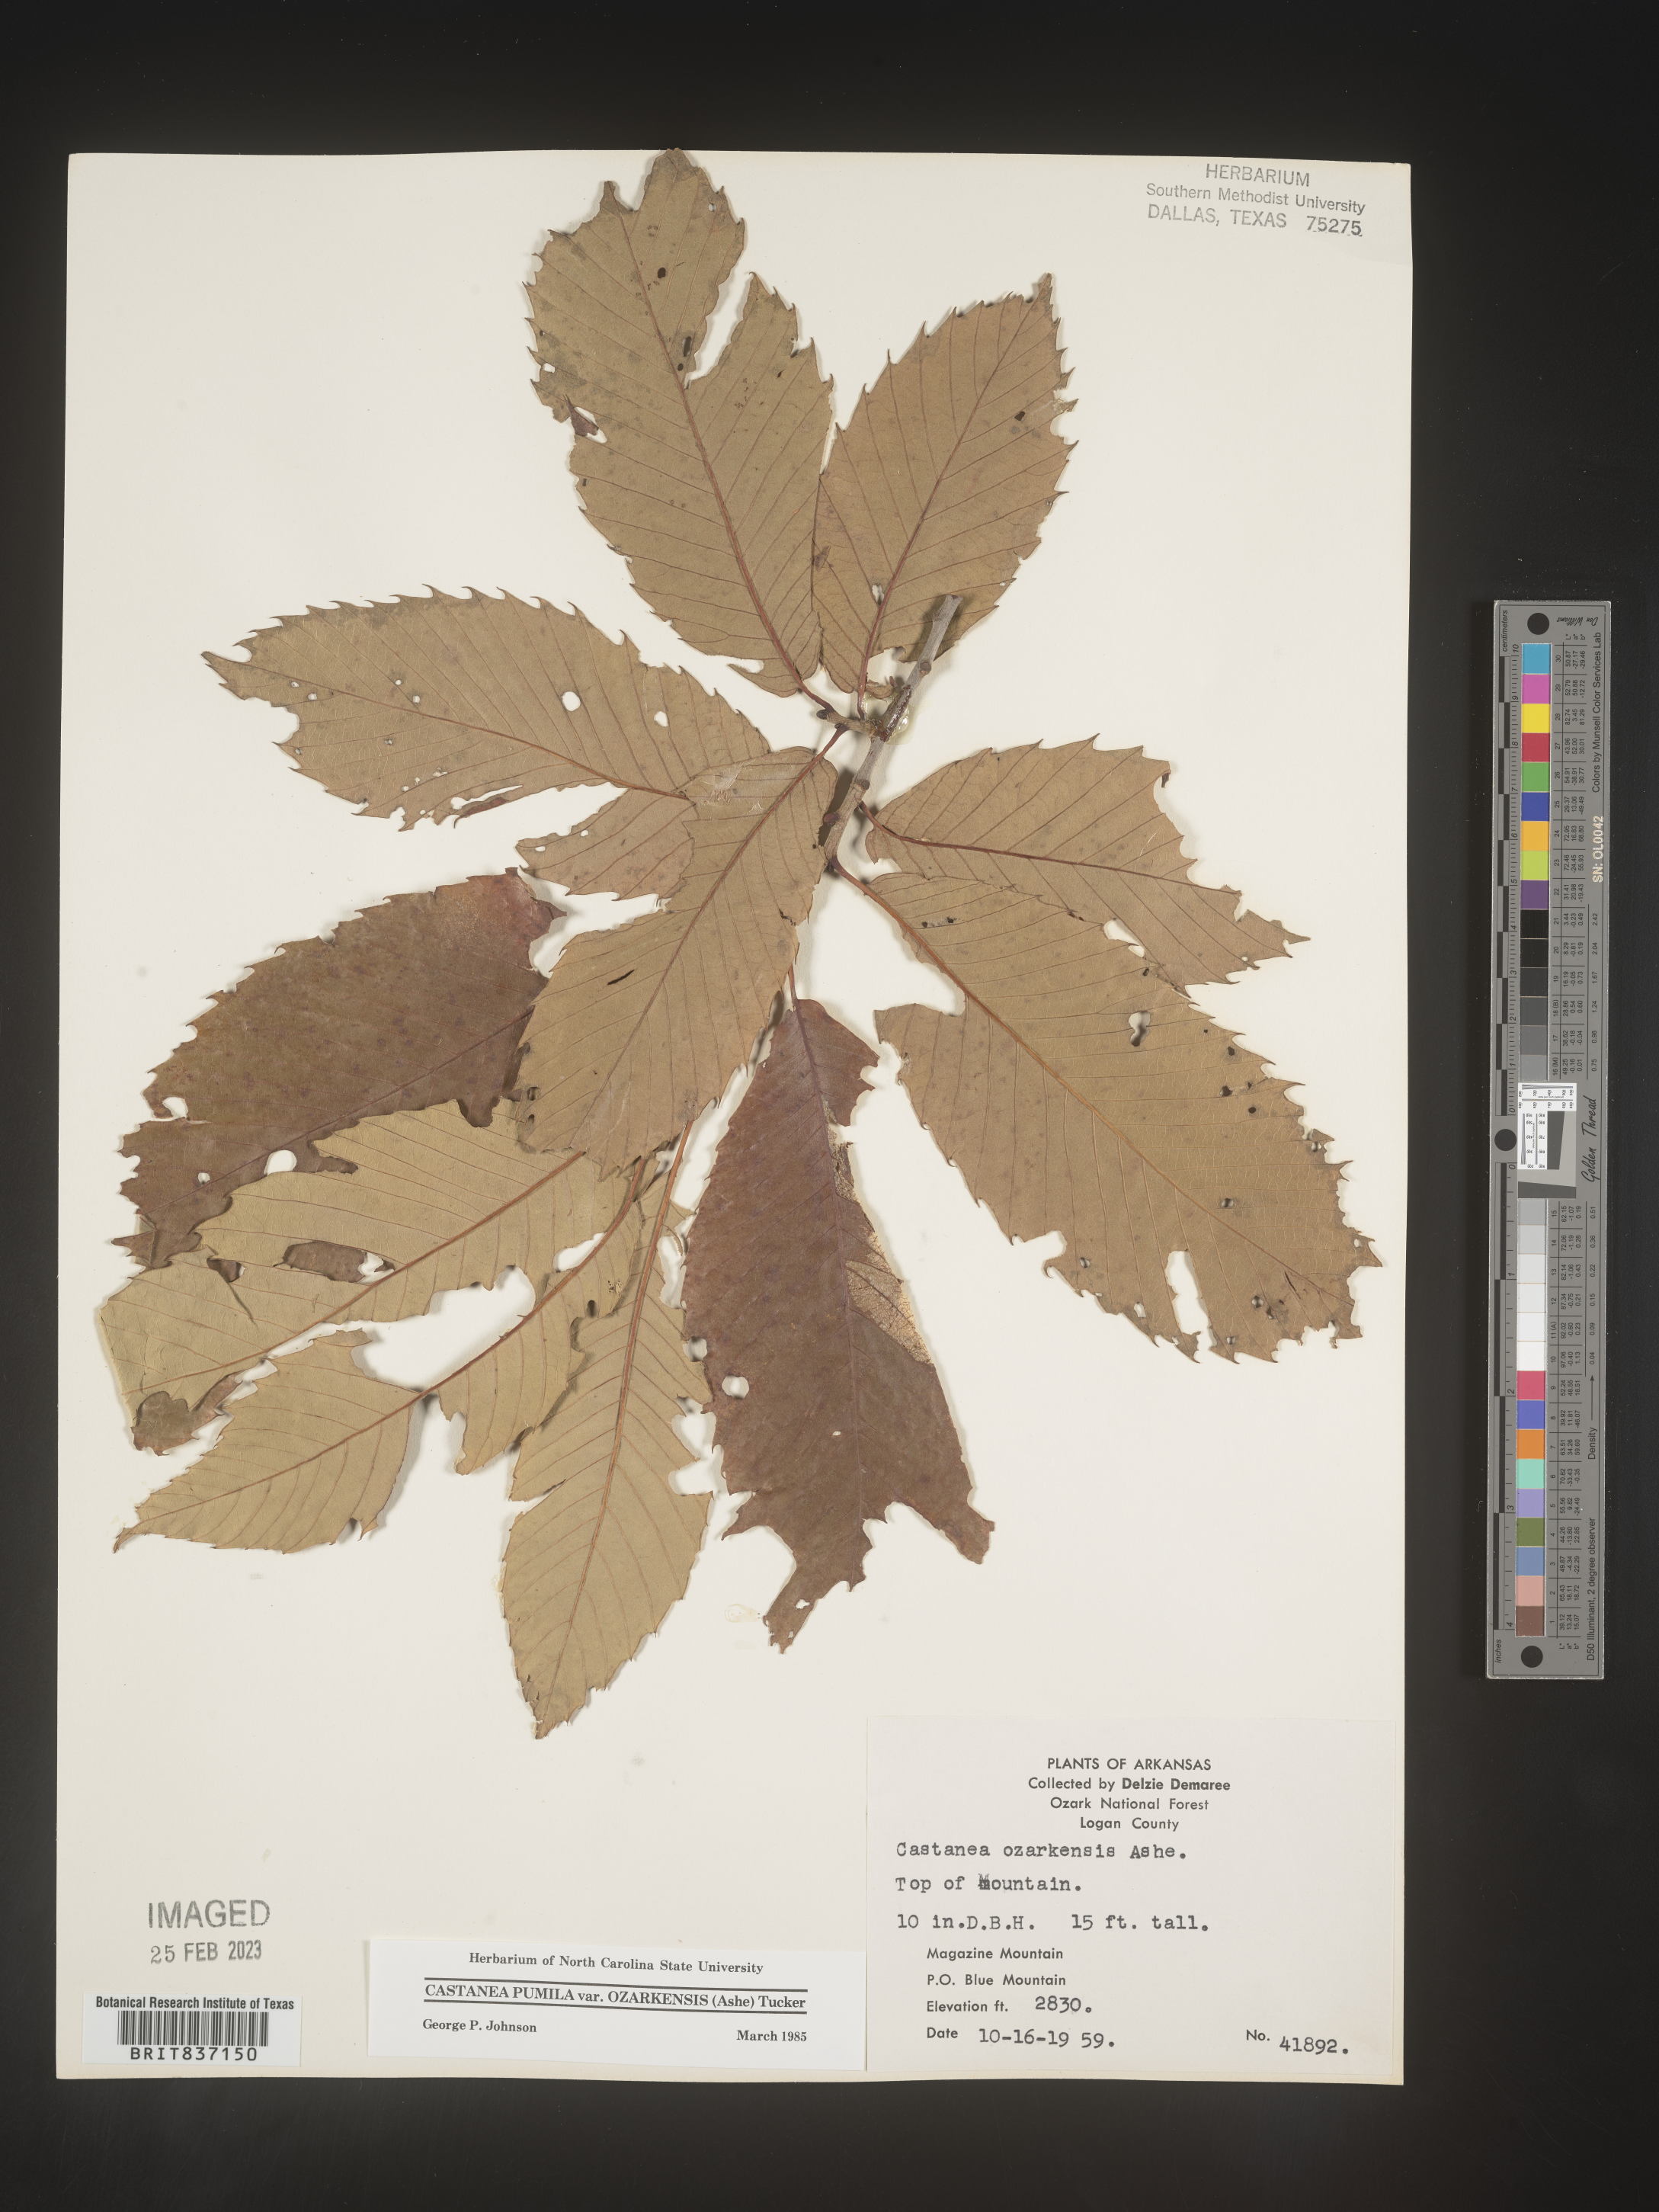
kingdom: Plantae
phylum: Tracheophyta
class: Magnoliopsida
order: Fagales
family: Fagaceae
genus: Castanea
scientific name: Castanea pumila
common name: Chinkapin
